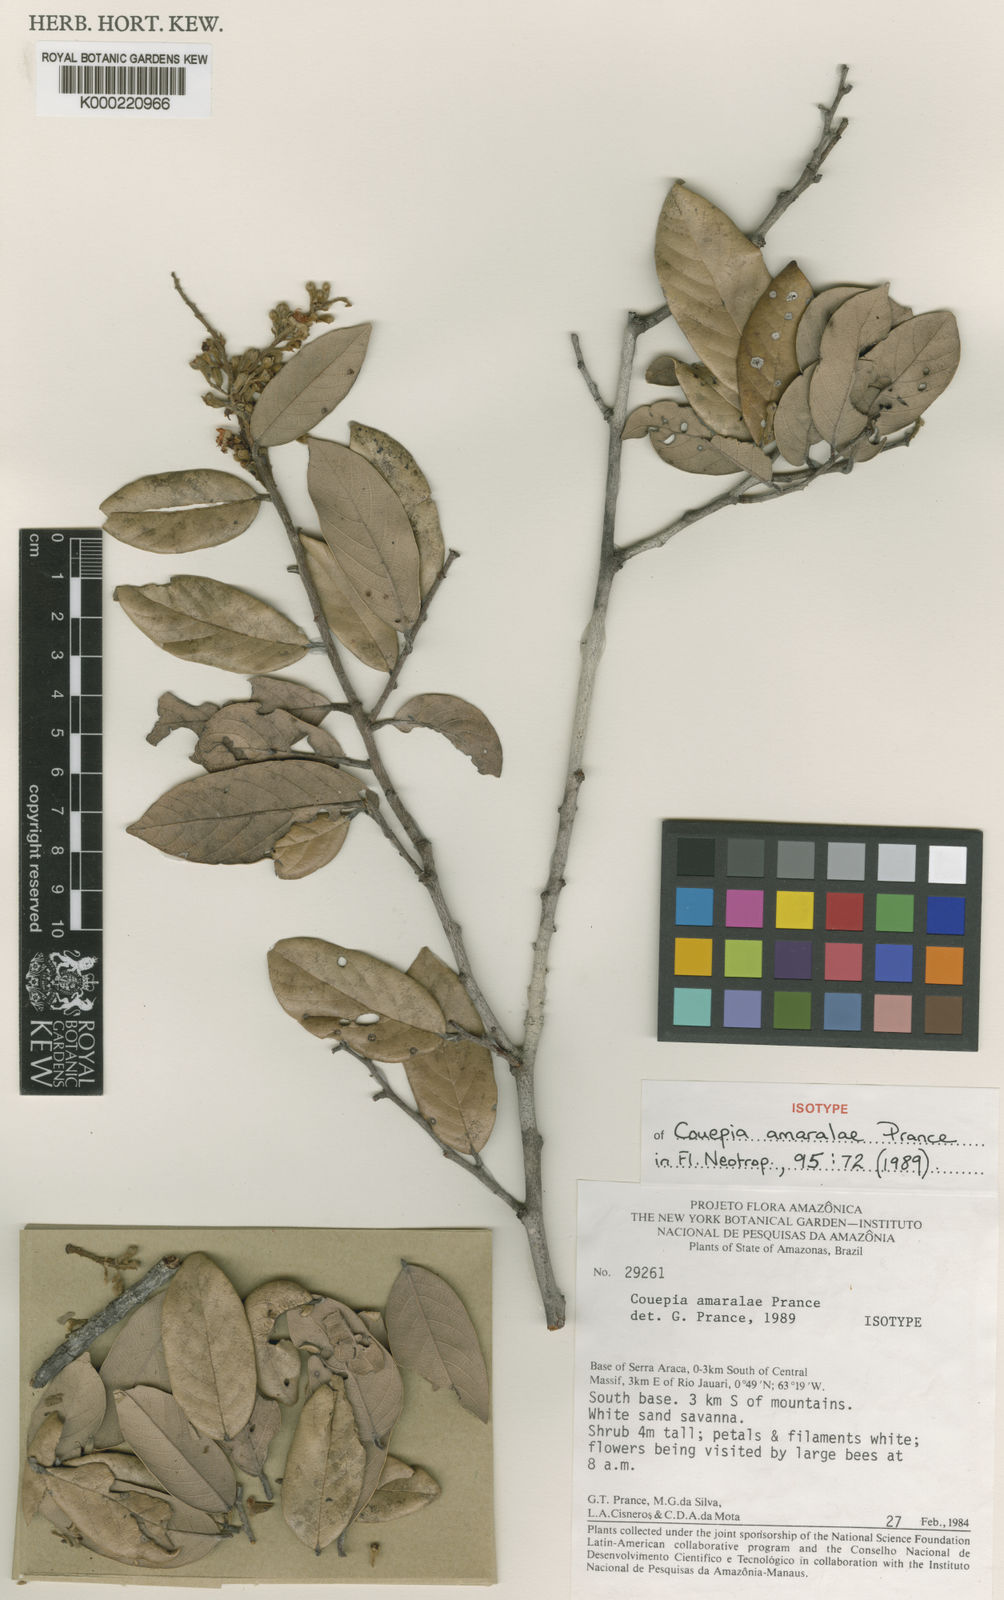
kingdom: Plantae
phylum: Tracheophyta
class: Magnoliopsida
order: Malpighiales
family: Chrysobalanaceae
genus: Gaulettia
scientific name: Gaulettia amaraliae
